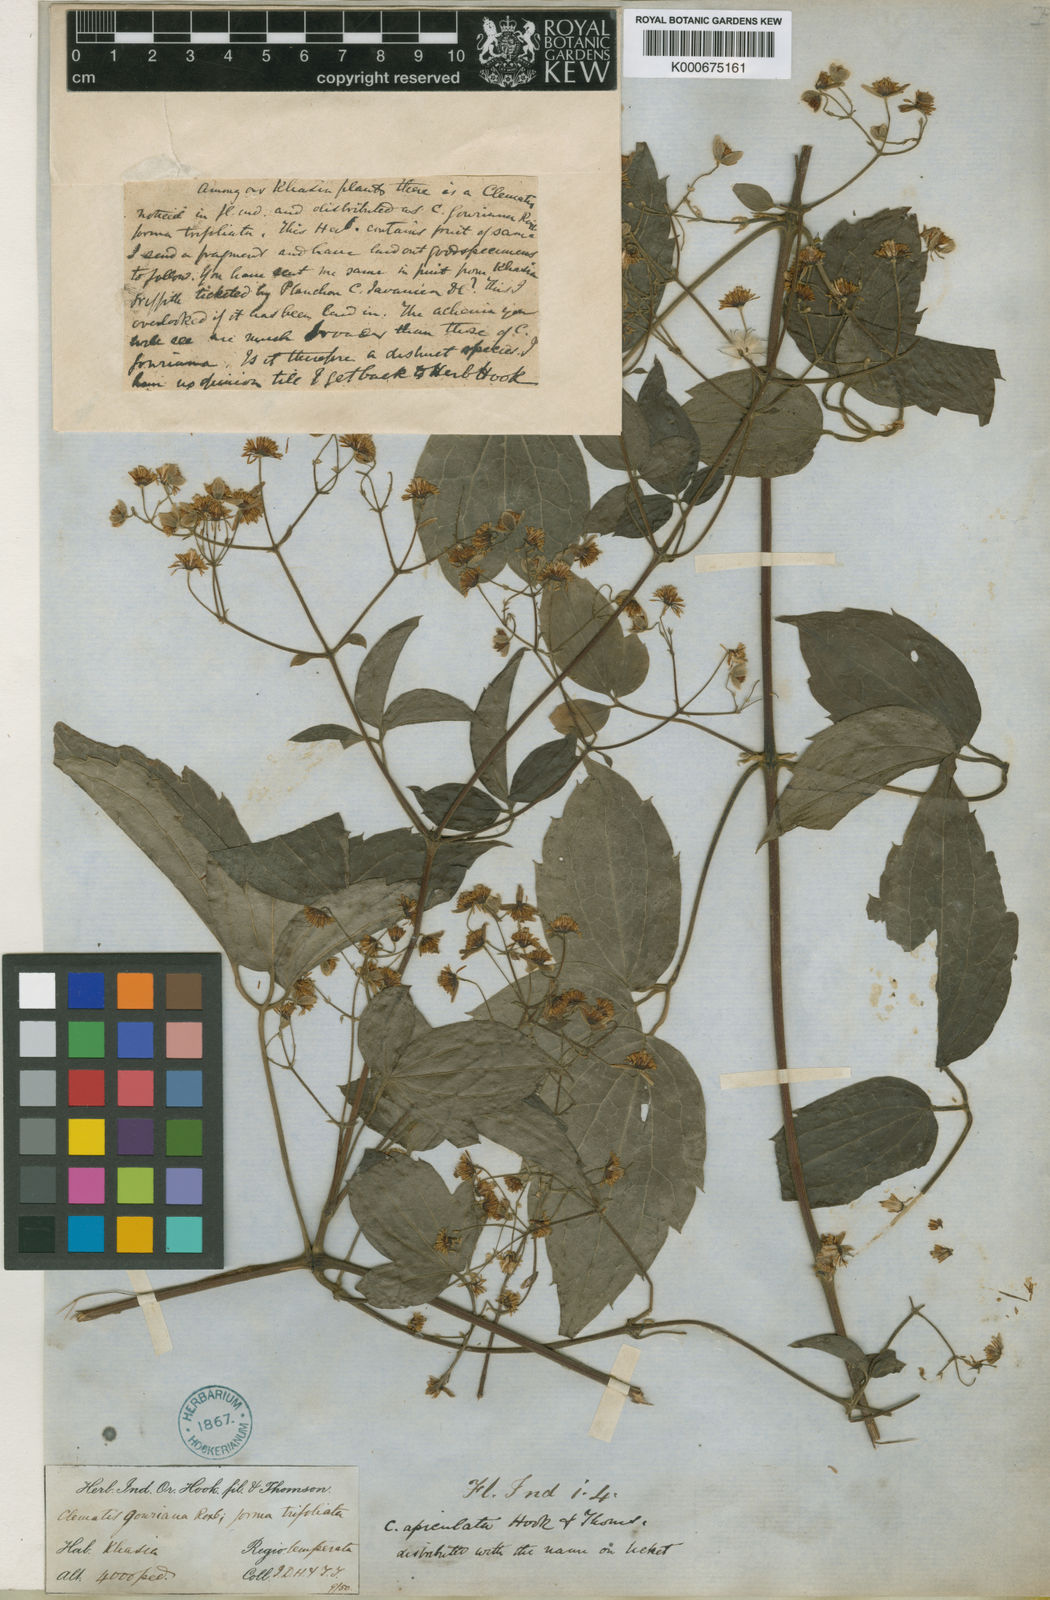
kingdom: Plantae
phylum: Tracheophyta
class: Magnoliopsida
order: Ranunculales
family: Ranunculaceae
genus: Clematis
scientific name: Clematis apiculata
